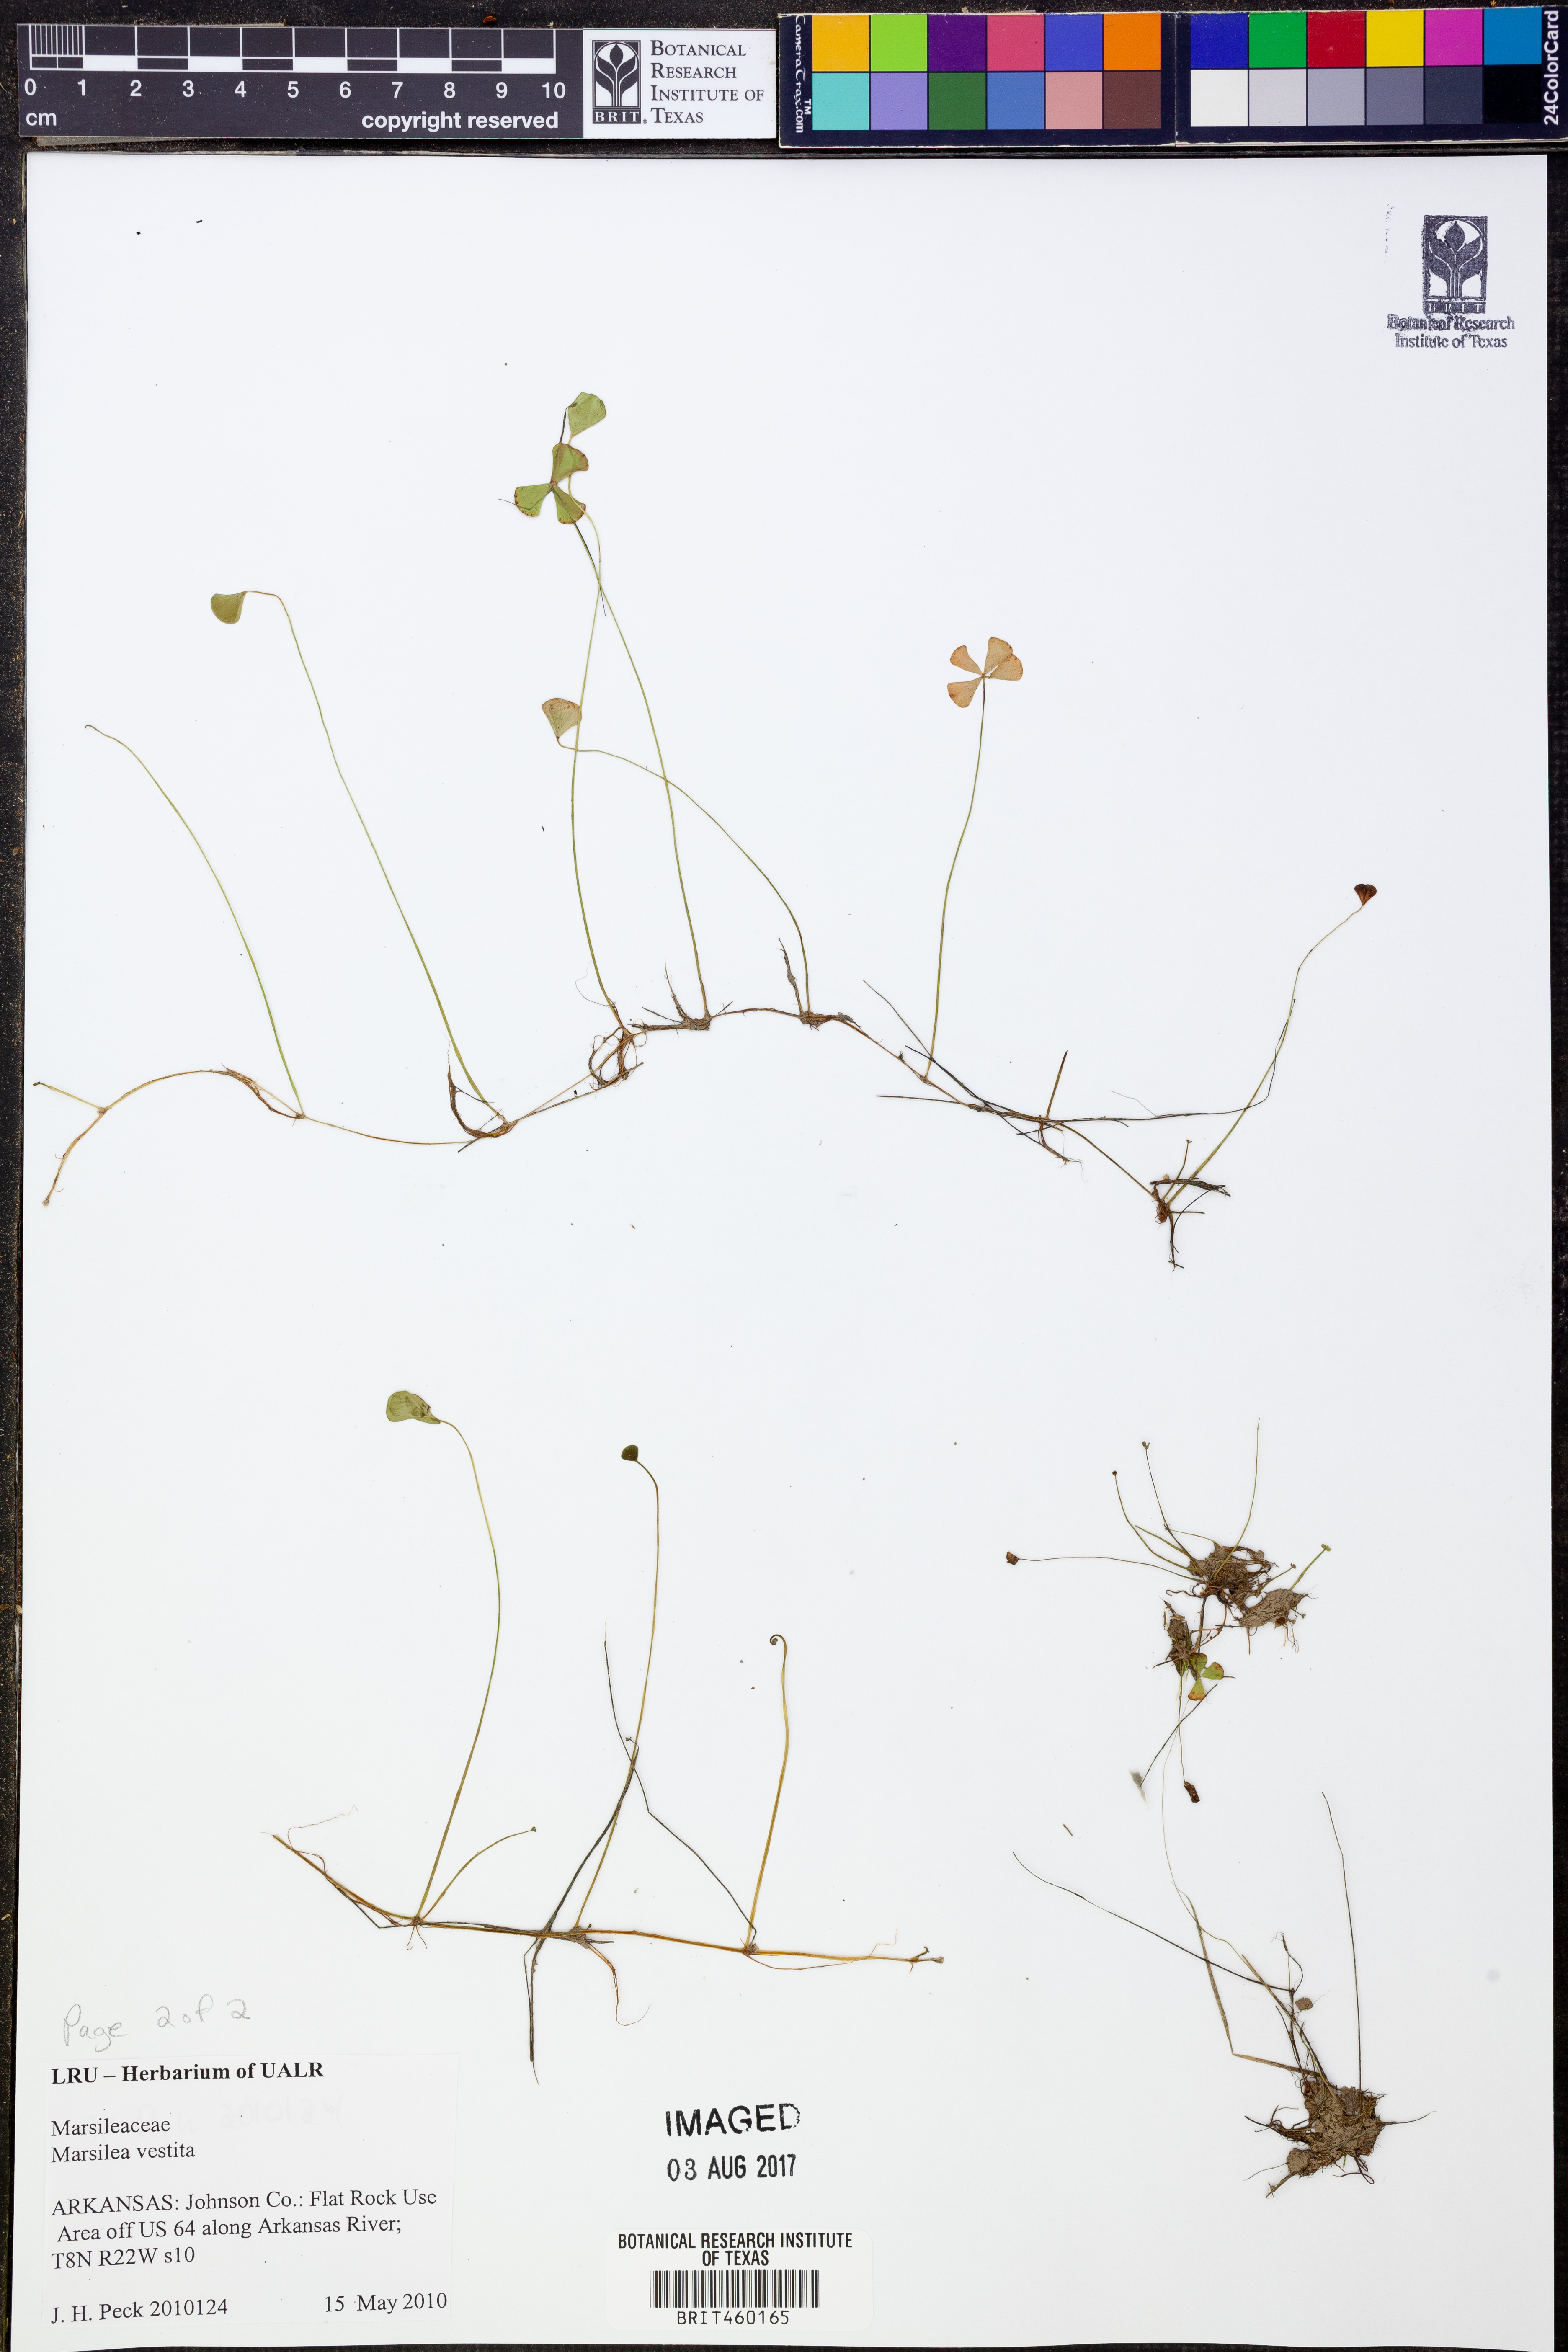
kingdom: Plantae
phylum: Tracheophyta
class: Polypodiopsida
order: Salviniales
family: Marsileaceae
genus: Marsilea
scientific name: Marsilea vestita
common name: Hooked-pepperwort
